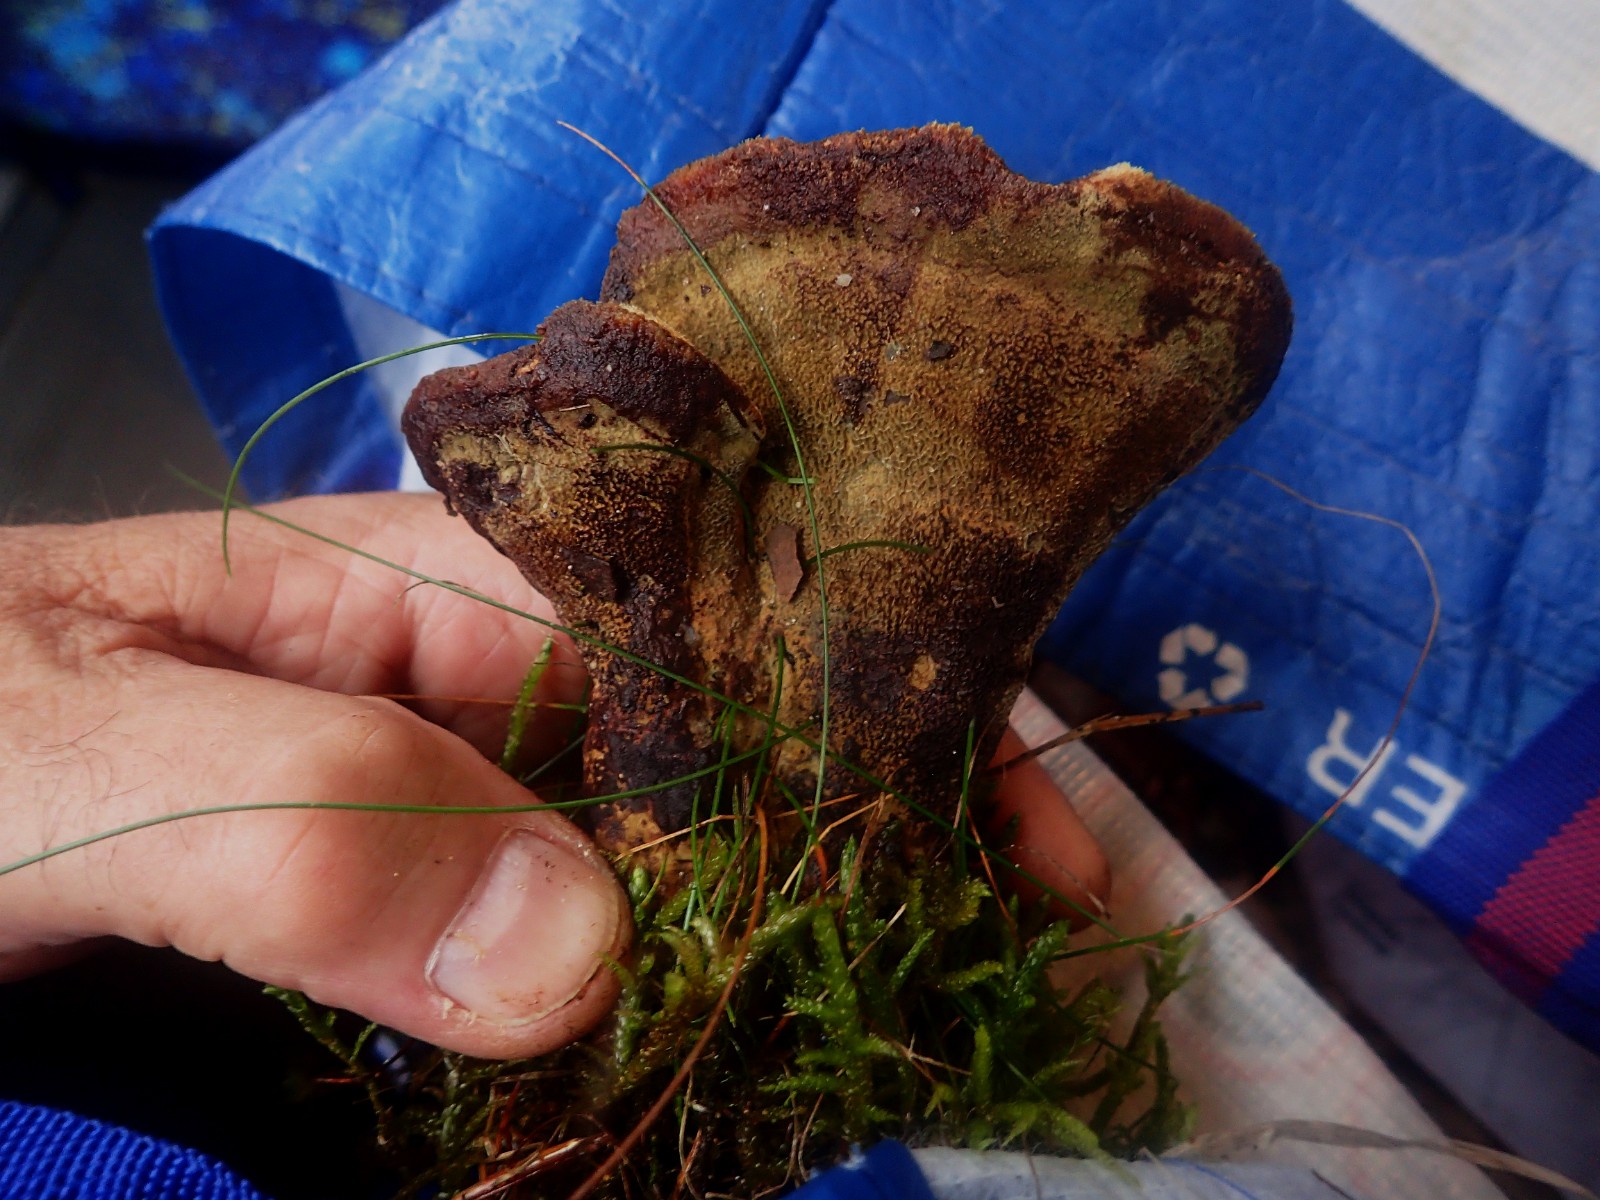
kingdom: Fungi
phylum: Basidiomycota
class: Agaricomycetes
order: Polyporales
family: Laetiporaceae
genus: Phaeolus
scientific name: Phaeolus schweinitzii
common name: brunporesvamp
